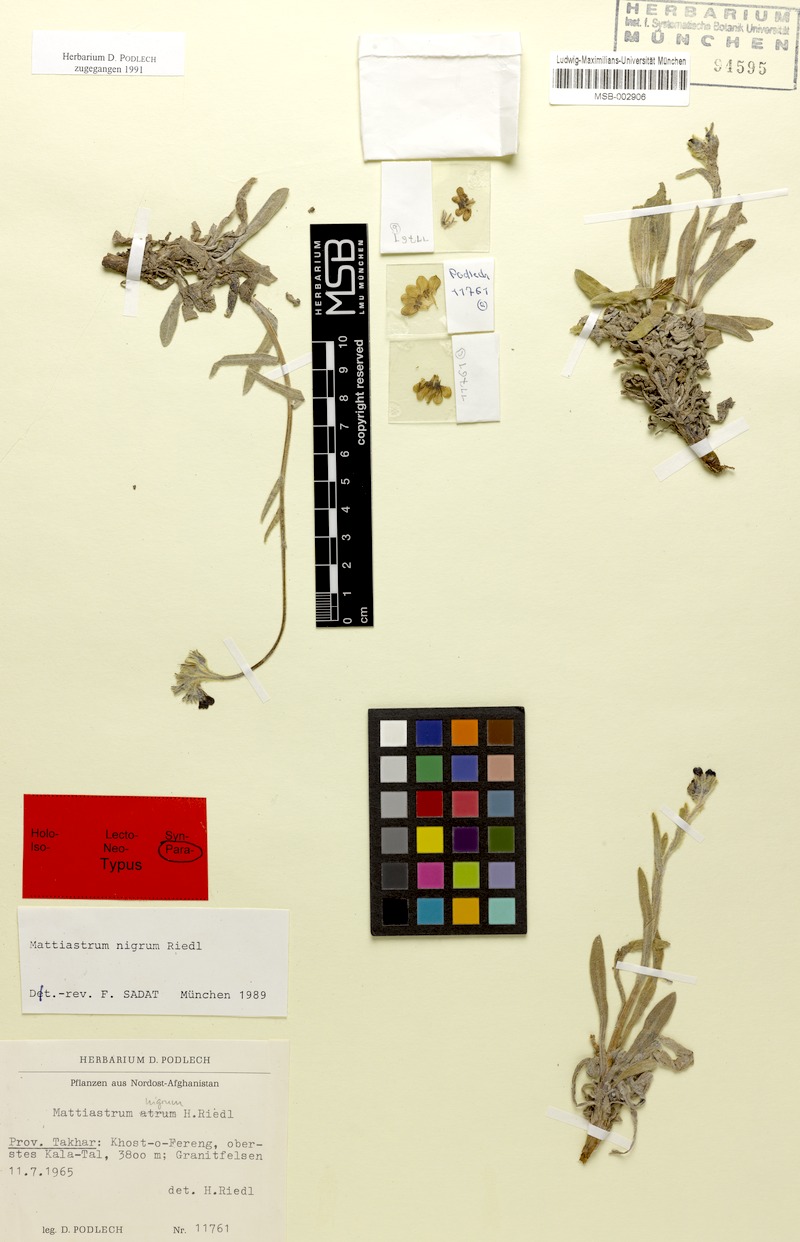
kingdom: Plantae
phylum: Tracheophyta
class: Magnoliopsida
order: Boraginales
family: Boraginaceae
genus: Paracaryum
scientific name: Paracaryum polyanthum
